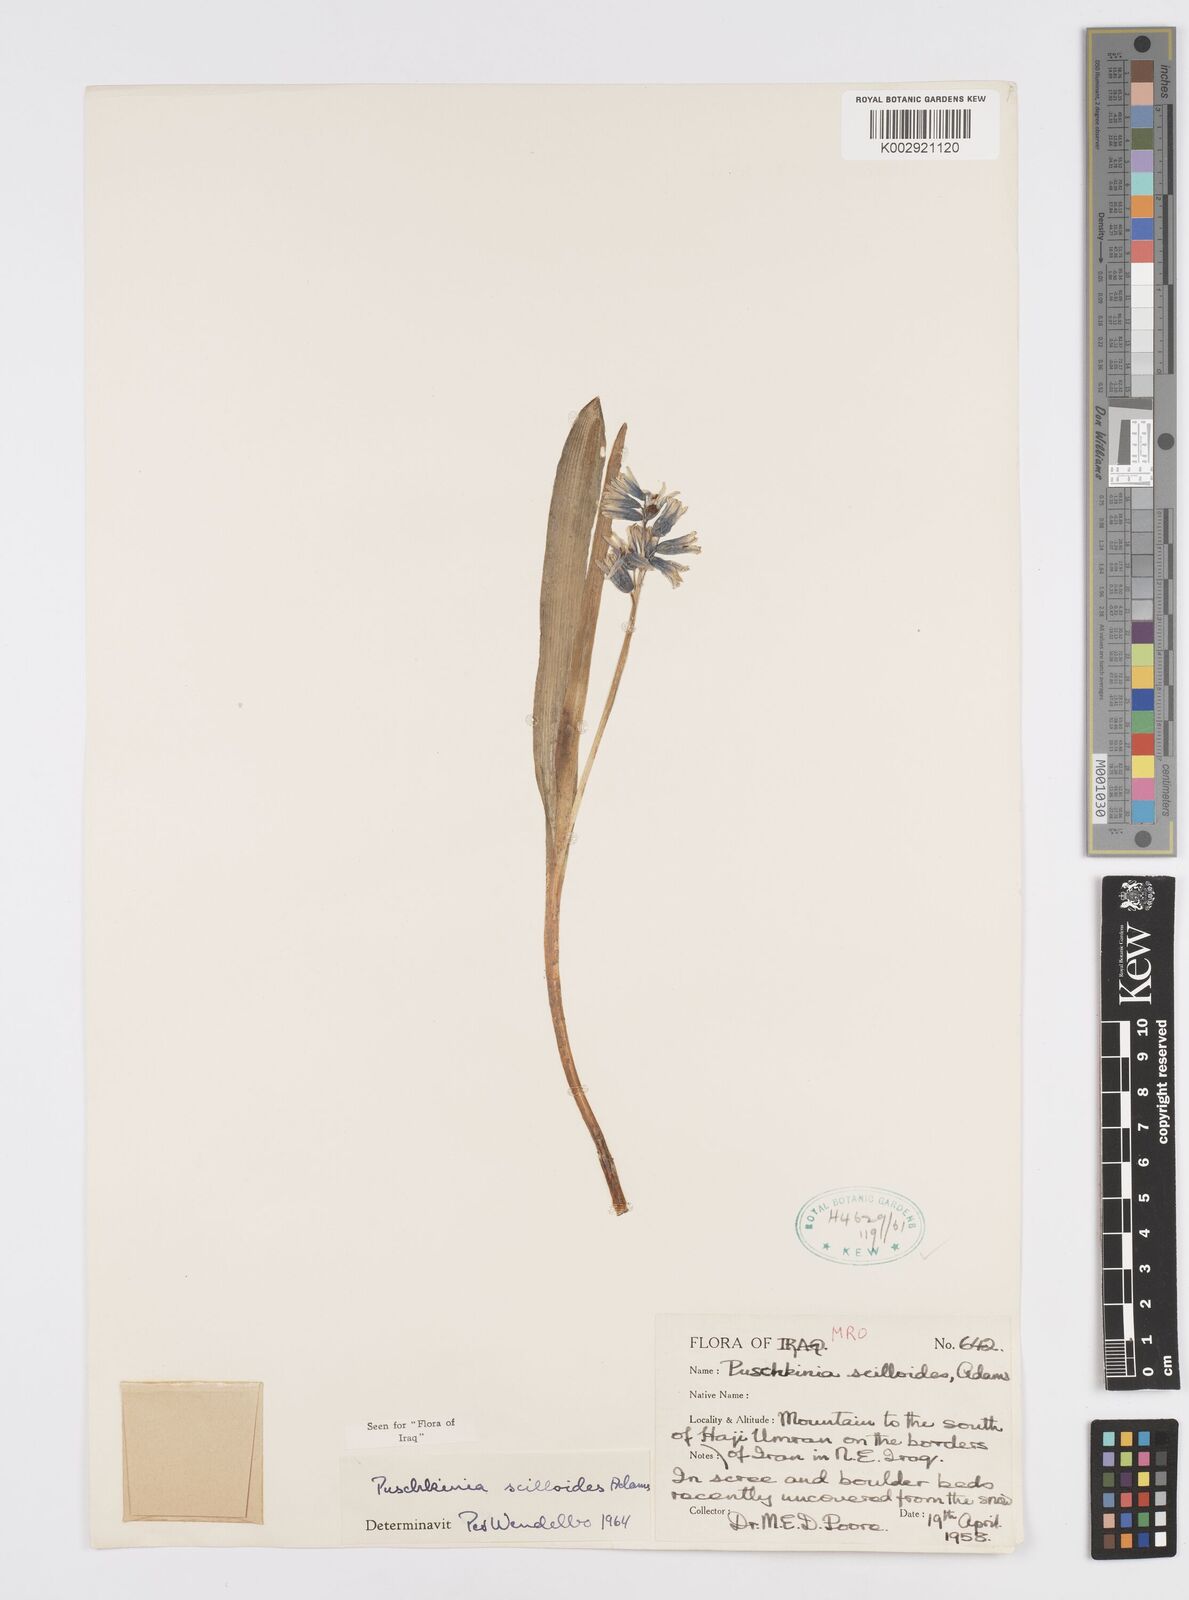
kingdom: Plantae
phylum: Tracheophyta
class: Liliopsida
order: Asparagales
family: Asparagaceae
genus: Puschkinia
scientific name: Puschkinia scilloides
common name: Striped squill
